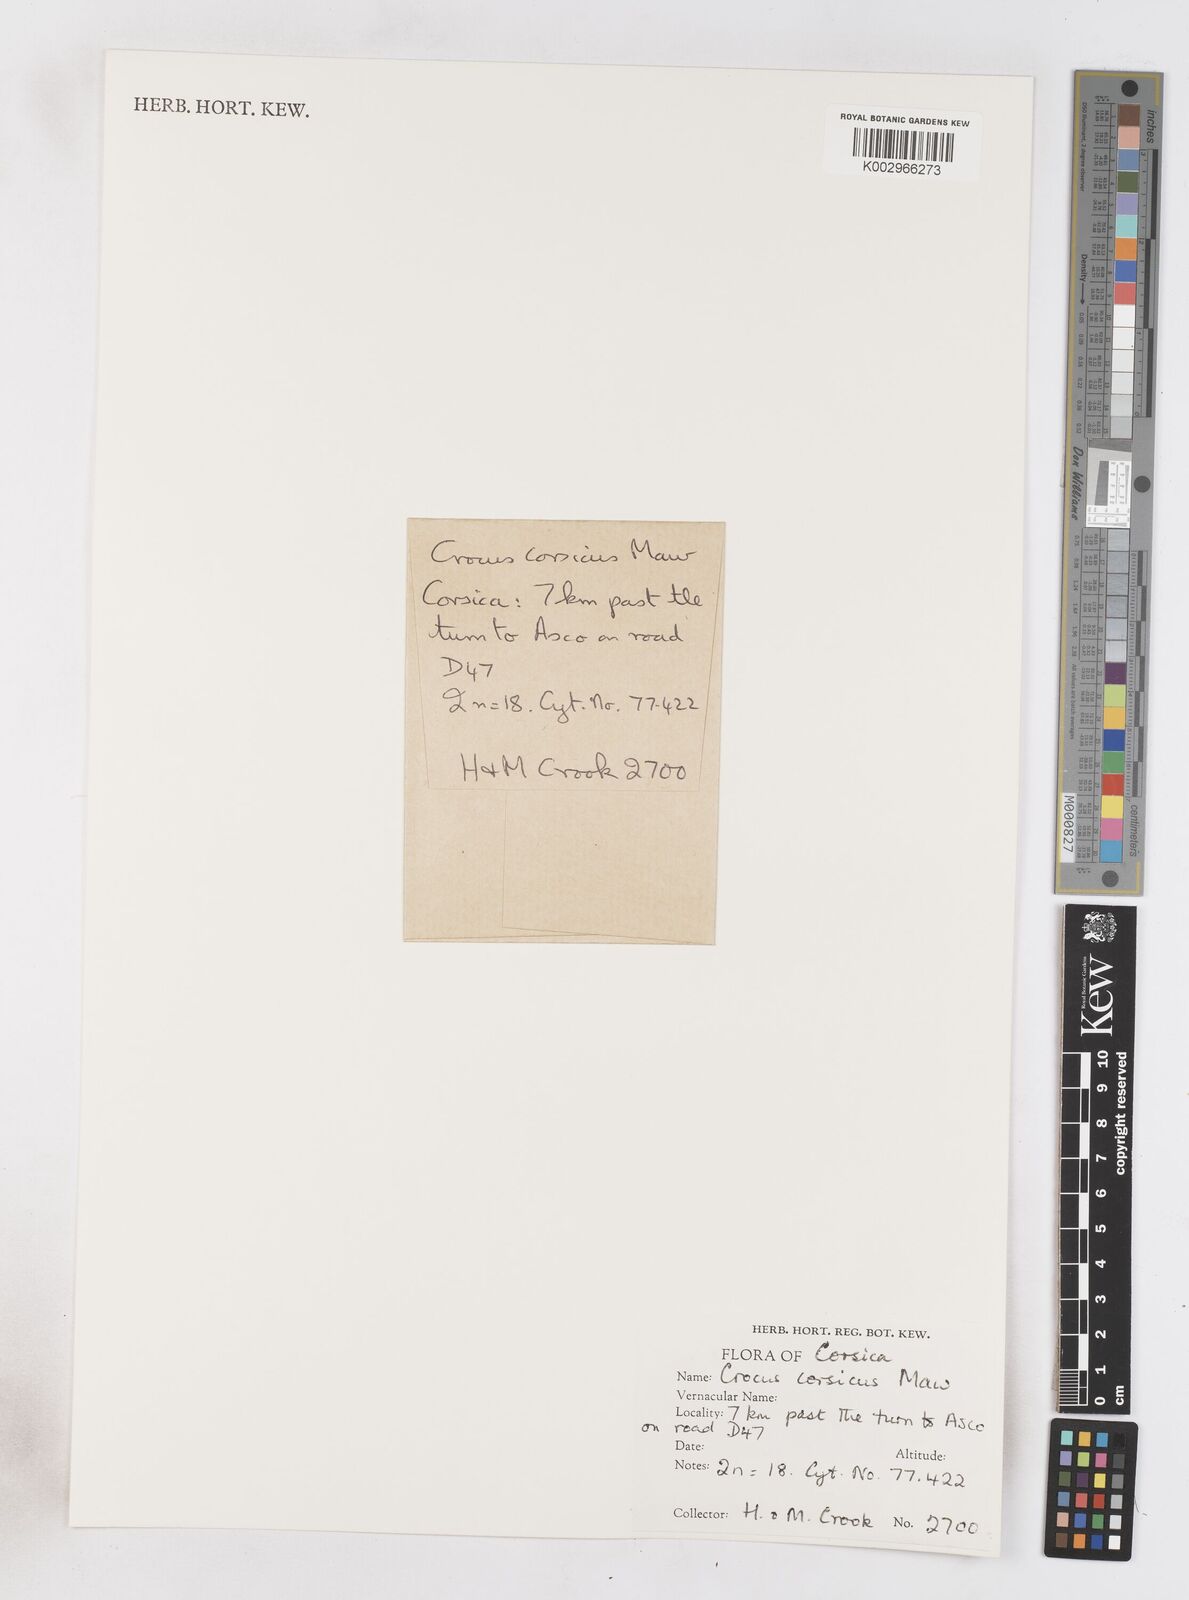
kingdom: Plantae
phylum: Tracheophyta
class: Liliopsida
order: Asparagales
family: Iridaceae
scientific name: Iridaceae
